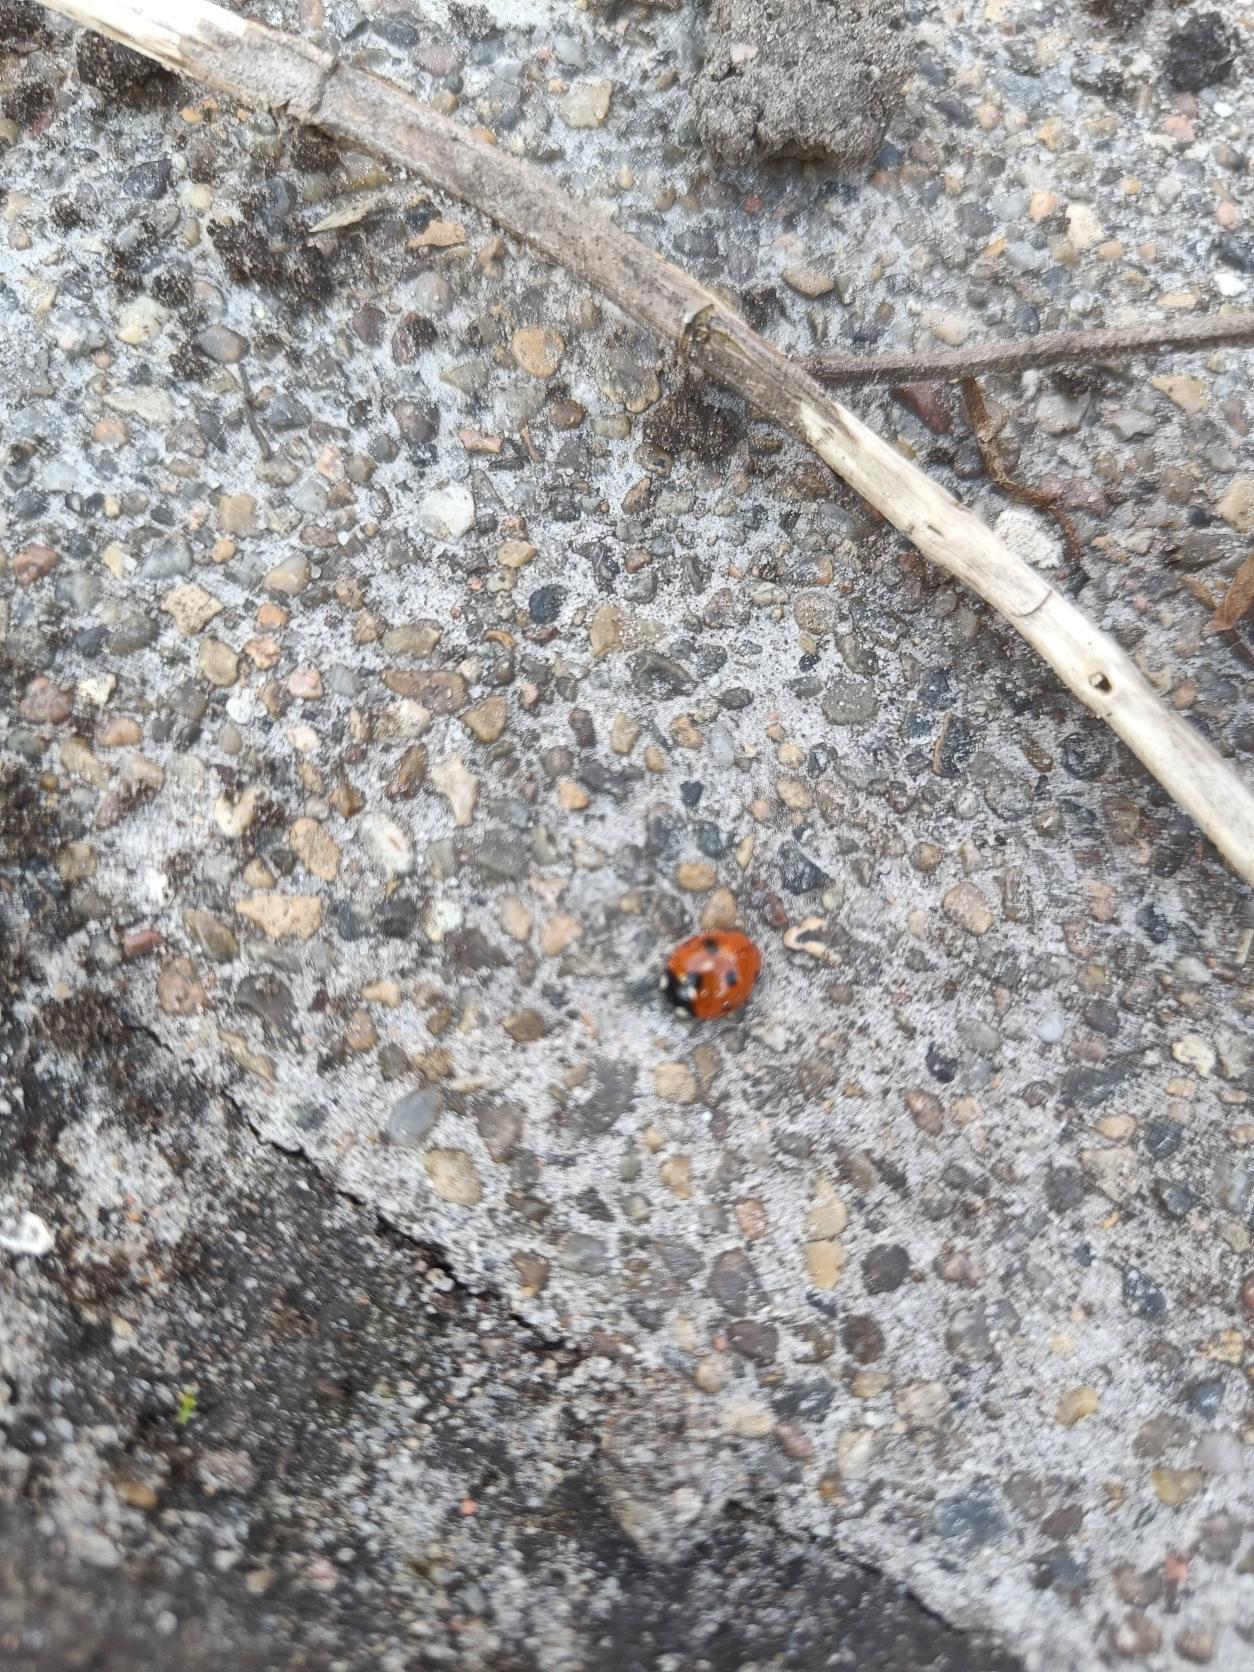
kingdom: Animalia
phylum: Arthropoda
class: Insecta
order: Coleoptera
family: Coccinellidae
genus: Coccinella
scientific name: Coccinella septempunctata
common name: Syvplettet mariehøne
